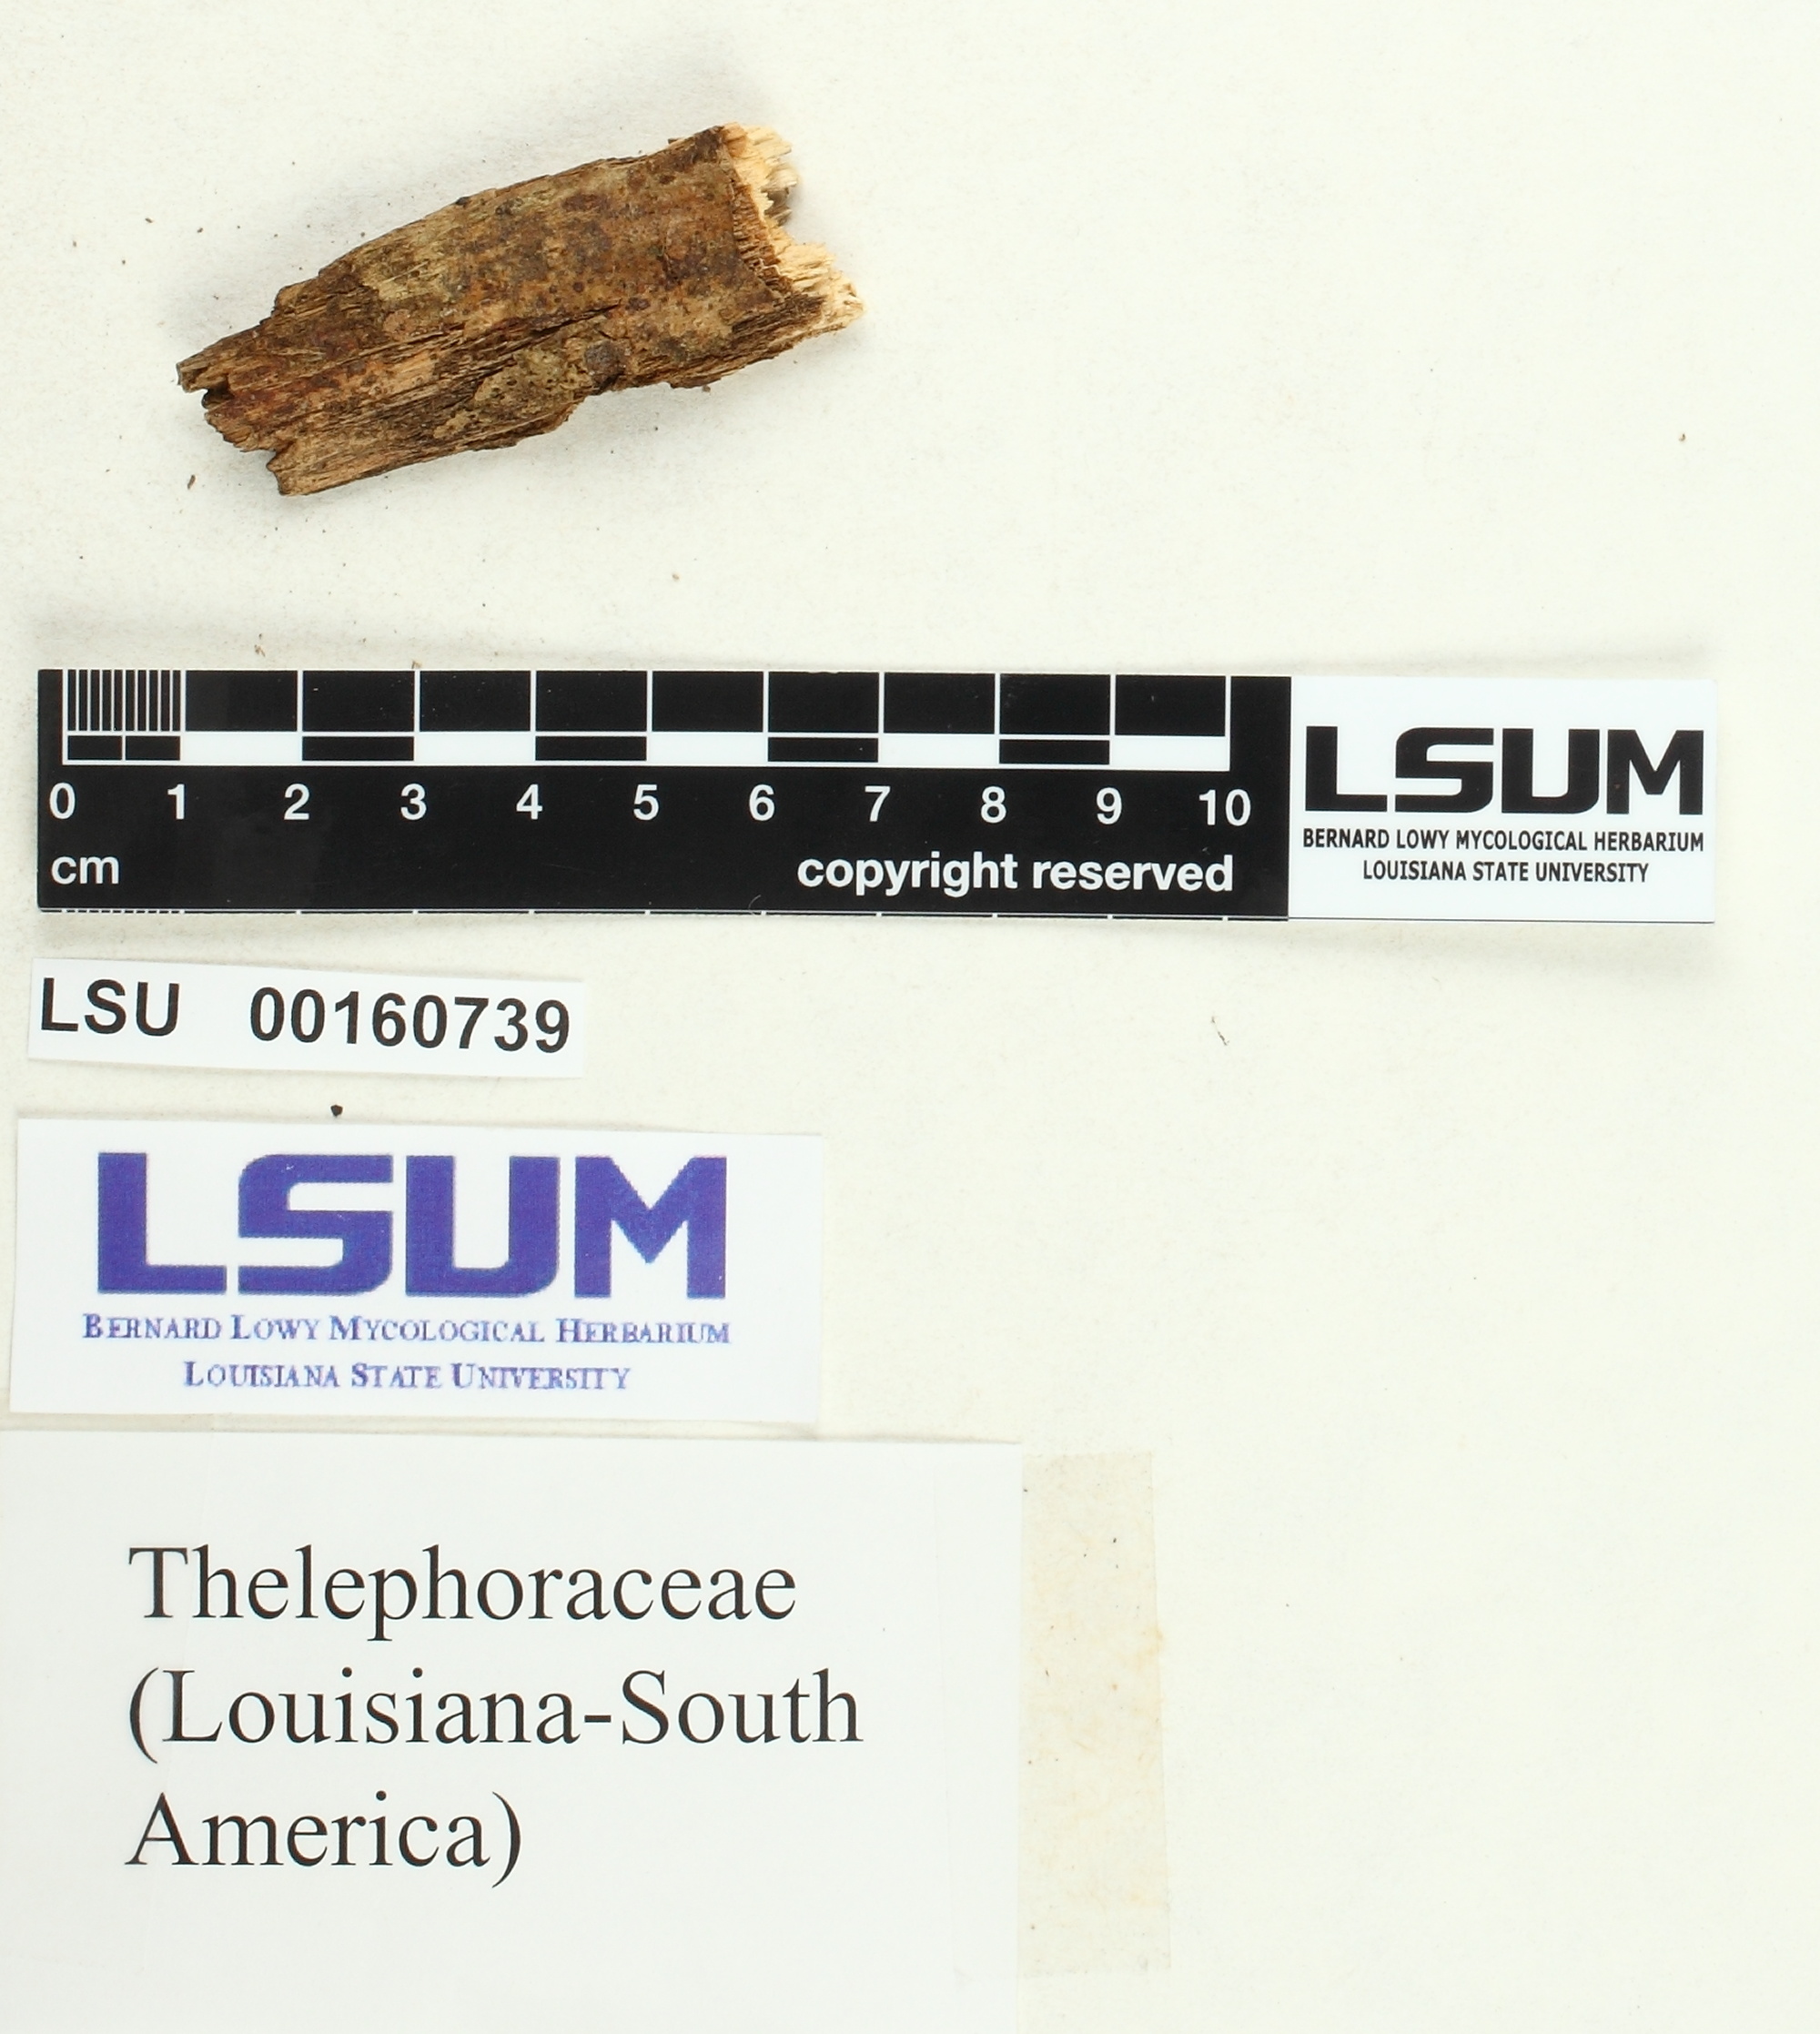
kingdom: Fungi
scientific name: Fungi
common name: Fungi
